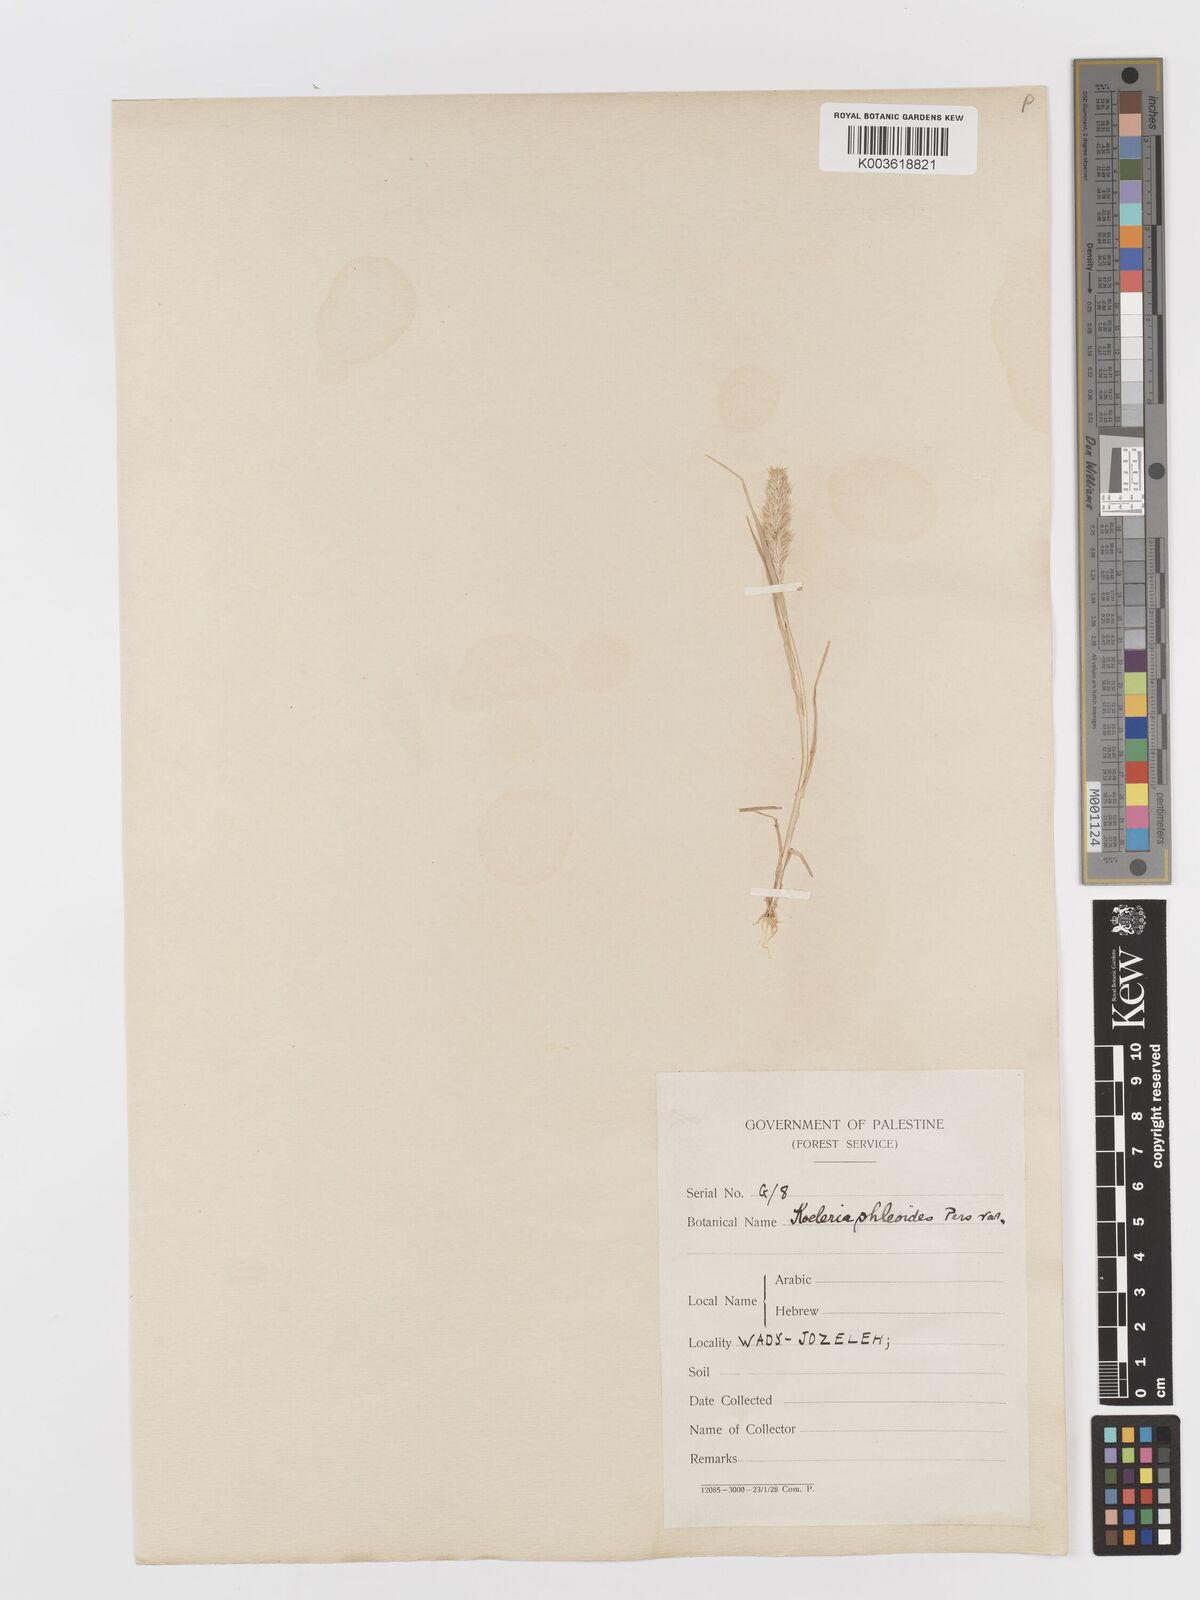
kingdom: Plantae
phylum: Tracheophyta
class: Liliopsida
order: Poales
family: Poaceae
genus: Rostraria
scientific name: Rostraria cristata
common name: Mediterranean hair-grass
